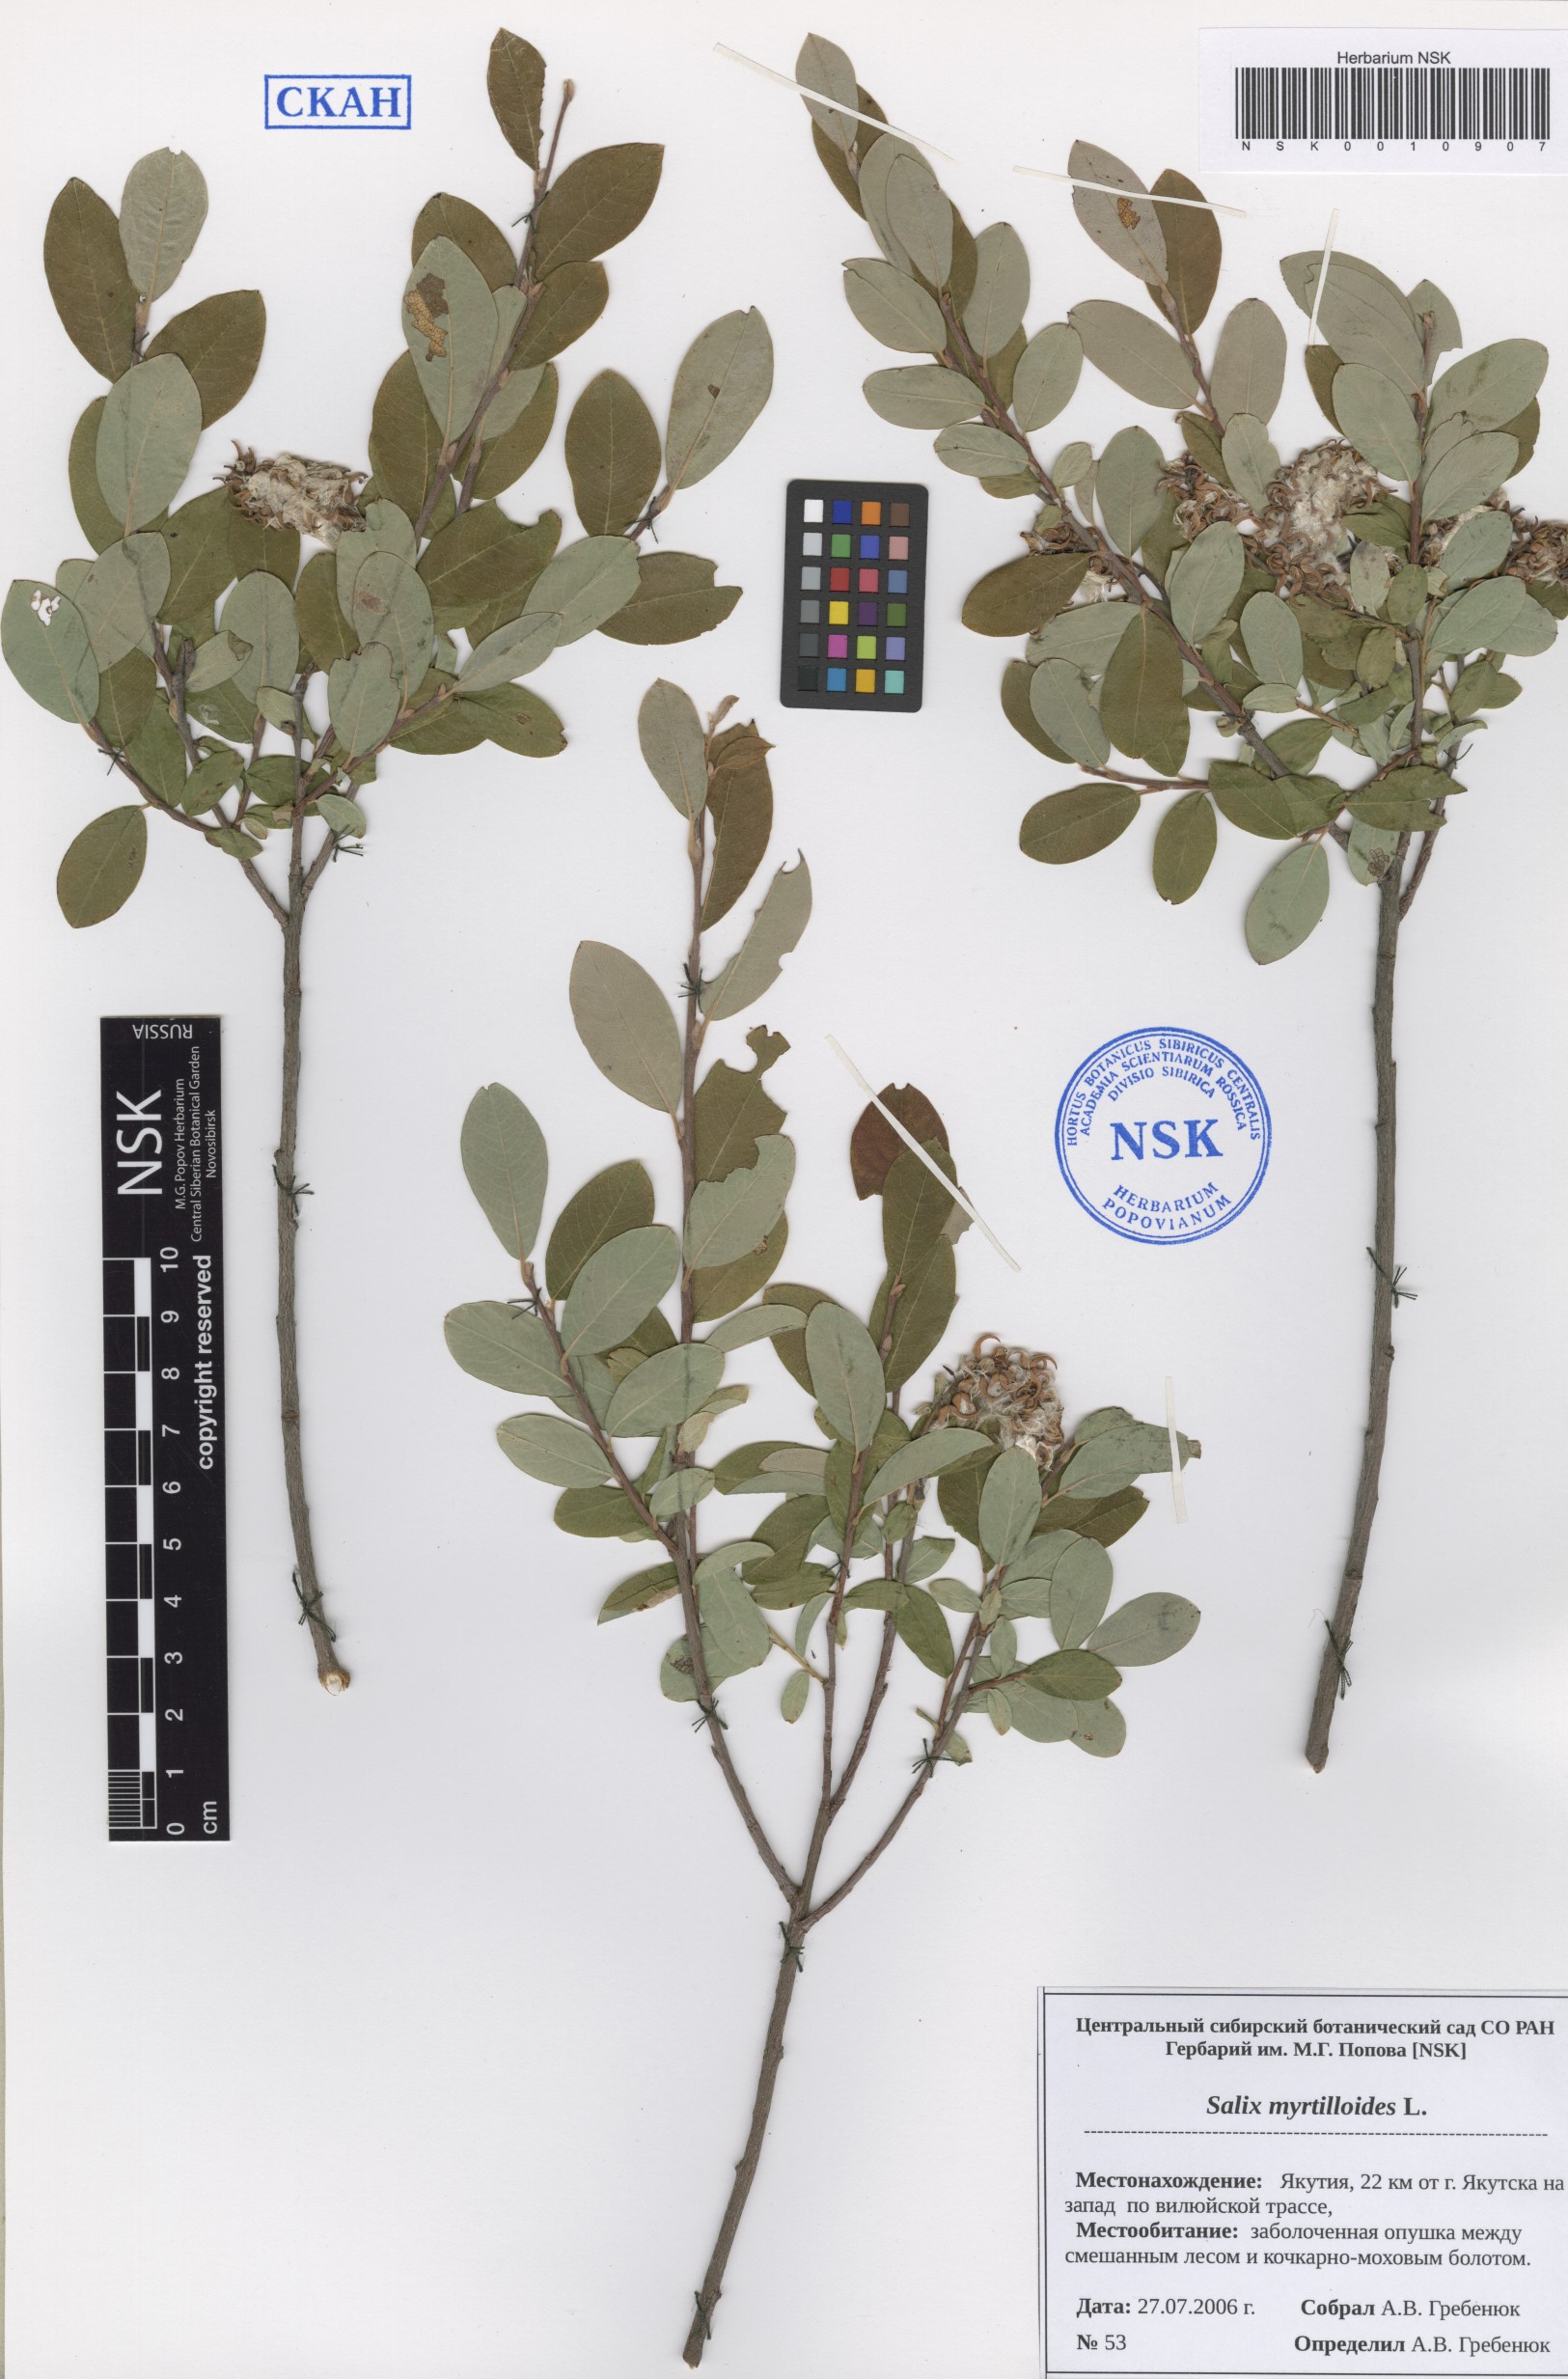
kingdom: Plantae
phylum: Tracheophyta
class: Magnoliopsida
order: Malpighiales
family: Salicaceae
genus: Salix
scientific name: Salix myrtilloides
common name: Myrtle-leaved willow
